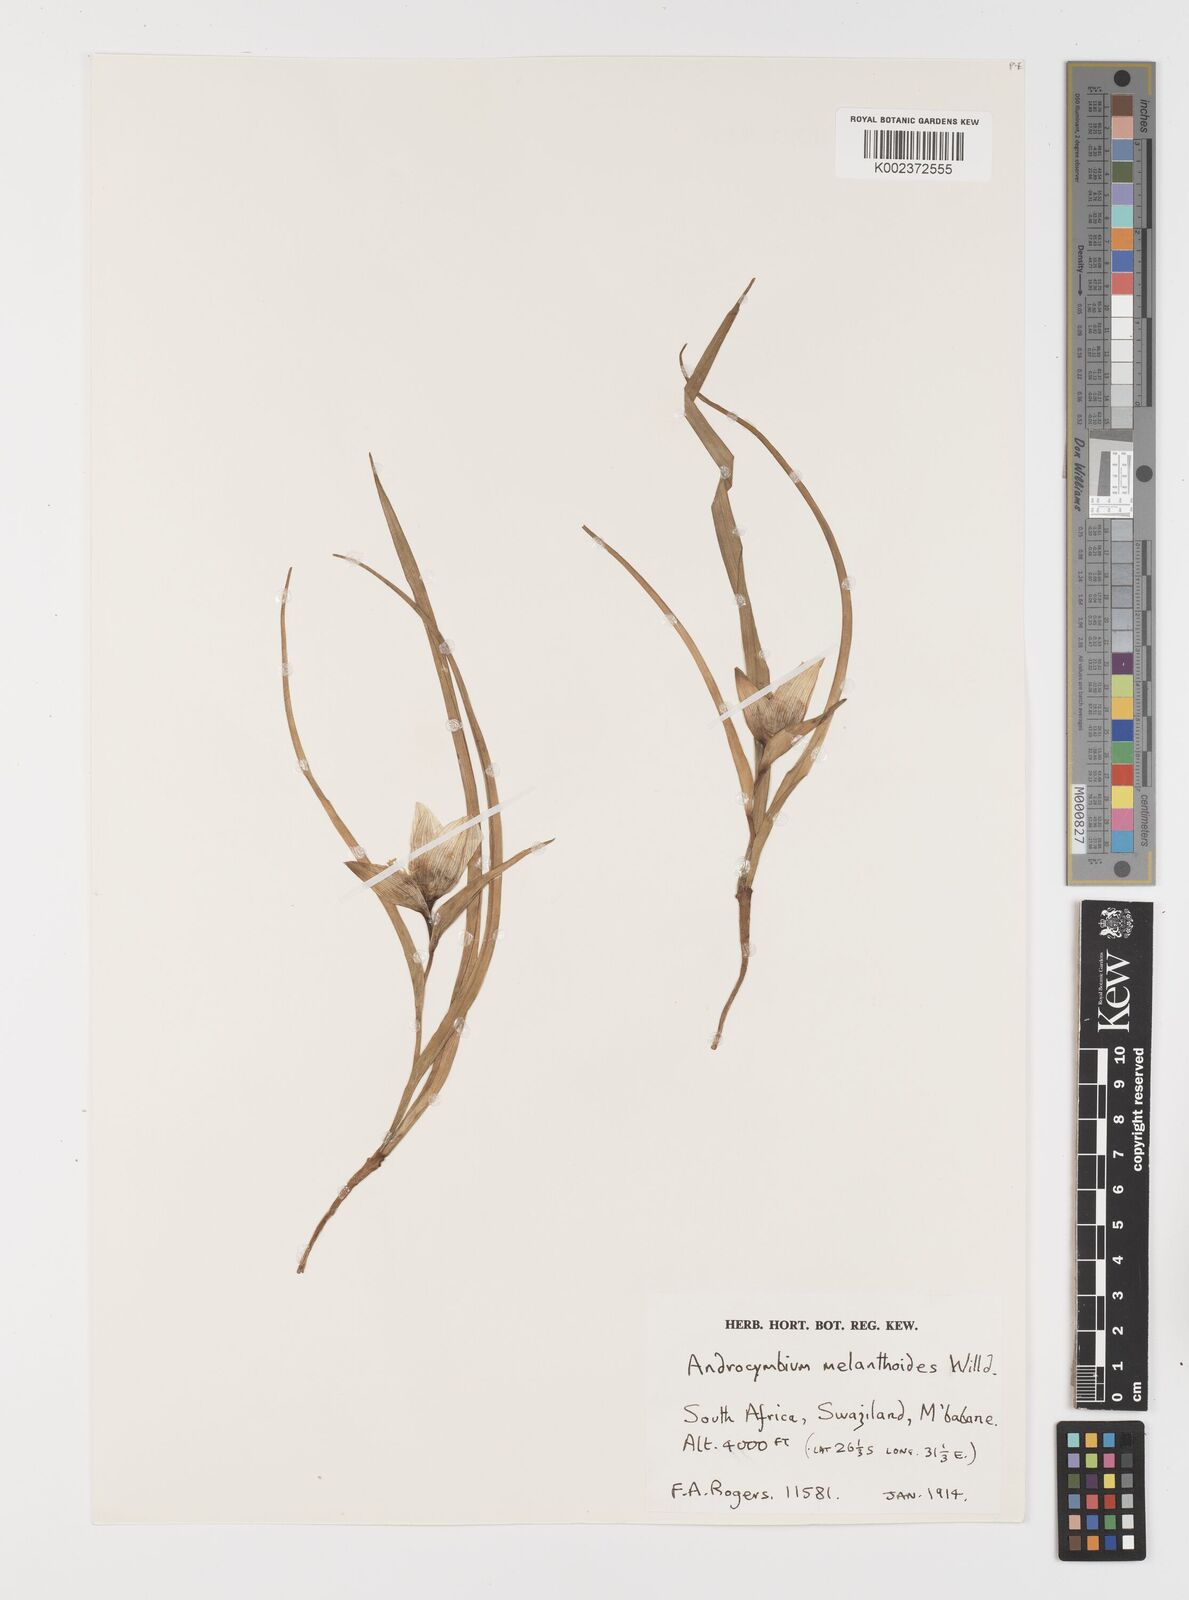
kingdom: Plantae
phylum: Tracheophyta
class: Liliopsida
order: Liliales
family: Colchicaceae
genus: Colchicum
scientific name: Colchicum melanthioides
